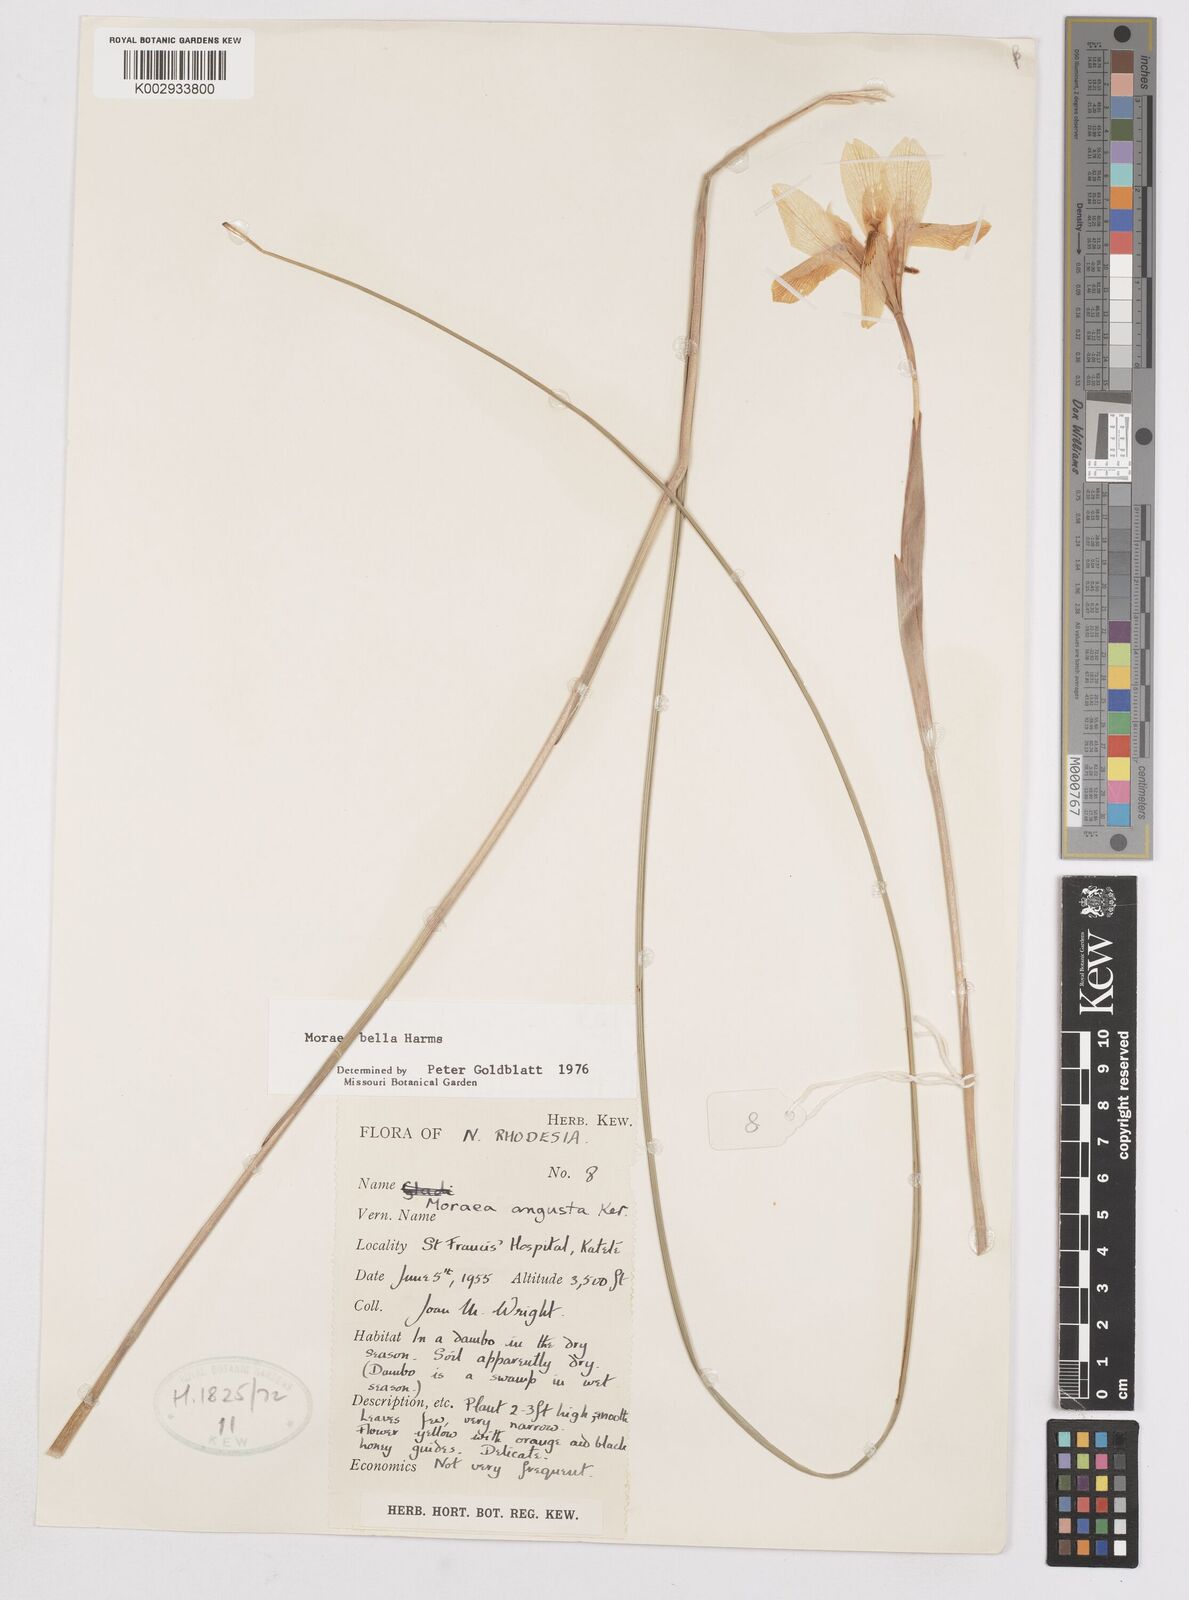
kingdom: Plantae
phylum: Tracheophyta
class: Liliopsida
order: Asparagales
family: Iridaceae
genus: Moraea
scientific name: Moraea bella
